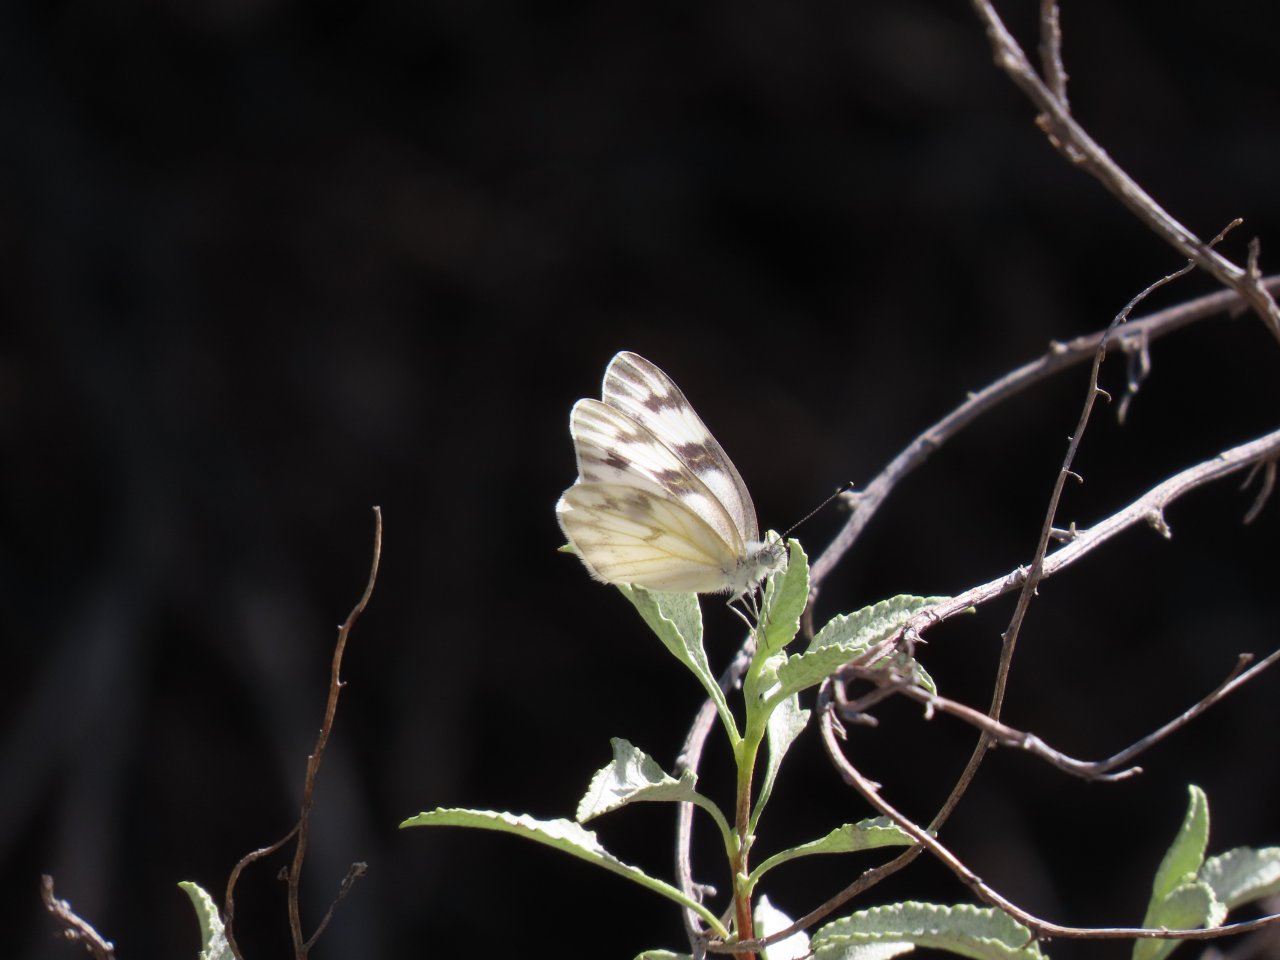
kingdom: Animalia
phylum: Arthropoda
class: Insecta
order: Lepidoptera
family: Pieridae
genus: Pontia
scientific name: Pontia protodice
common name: Checkered White
